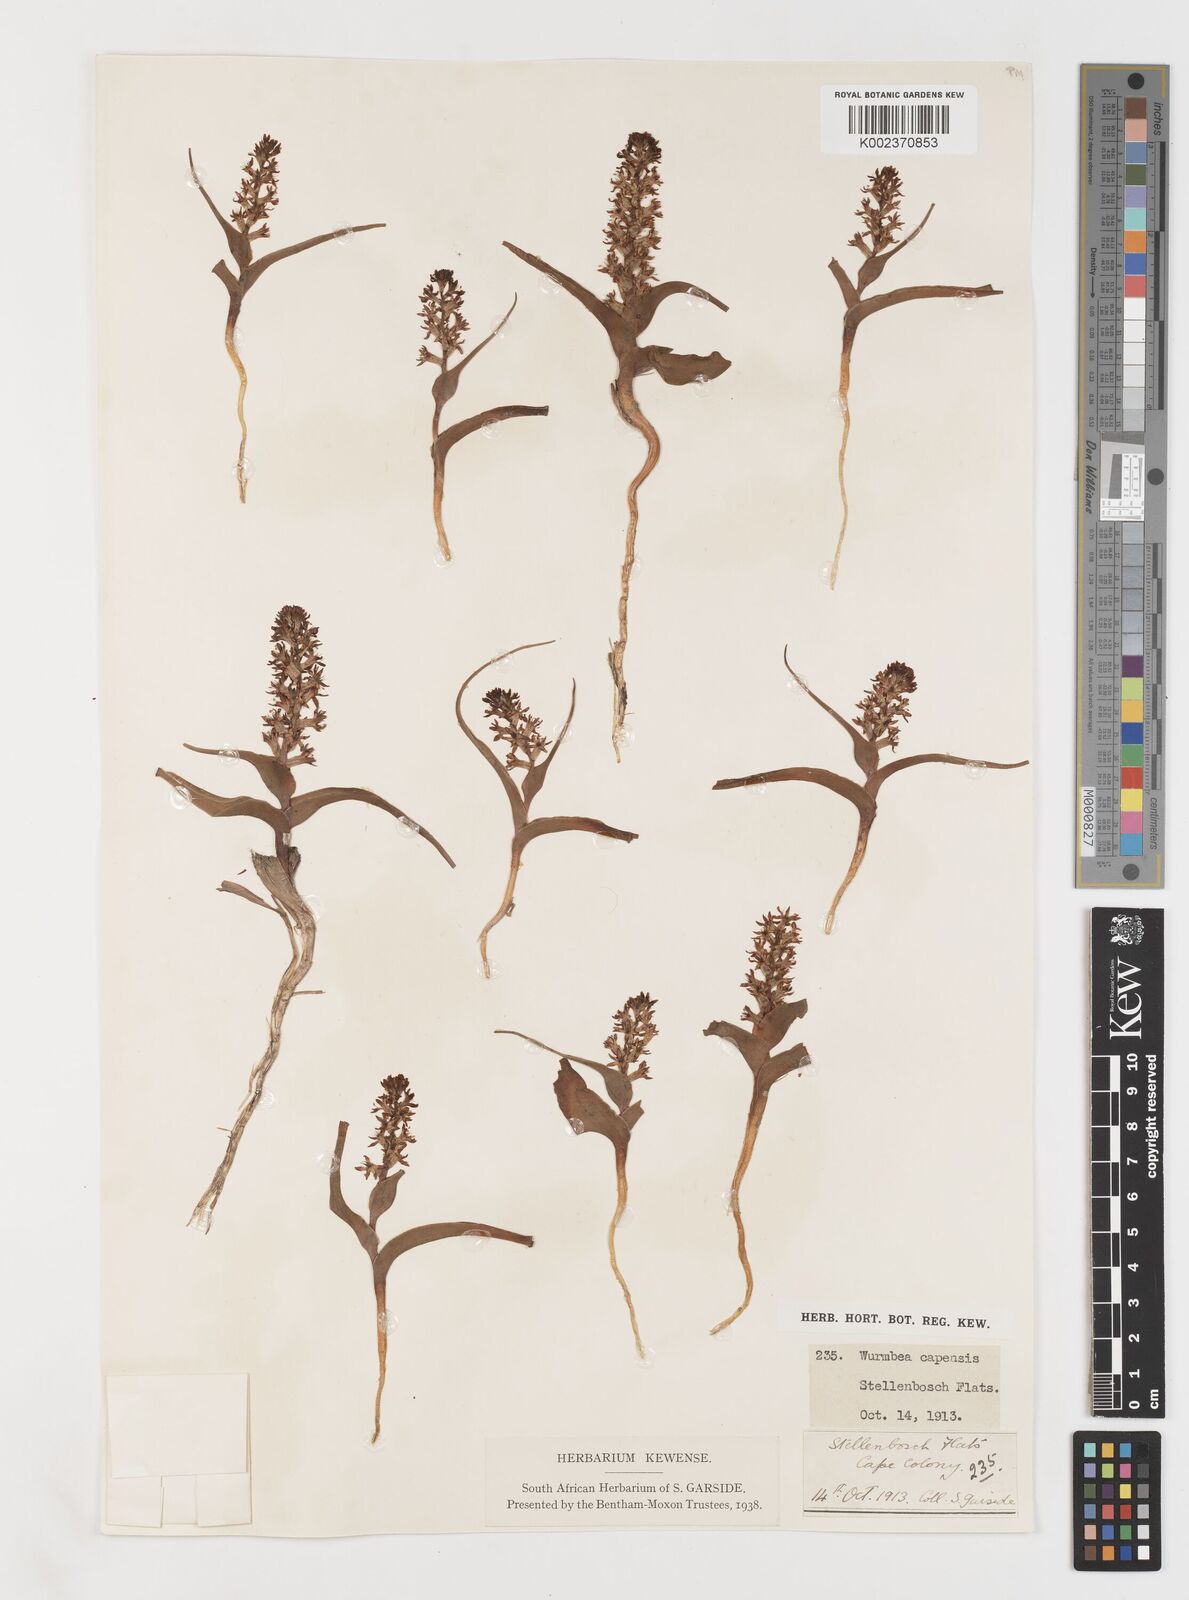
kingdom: Plantae
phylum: Tracheophyta
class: Liliopsida
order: Liliales
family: Colchicaceae
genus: Wurmbea
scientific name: Wurmbea capensis
